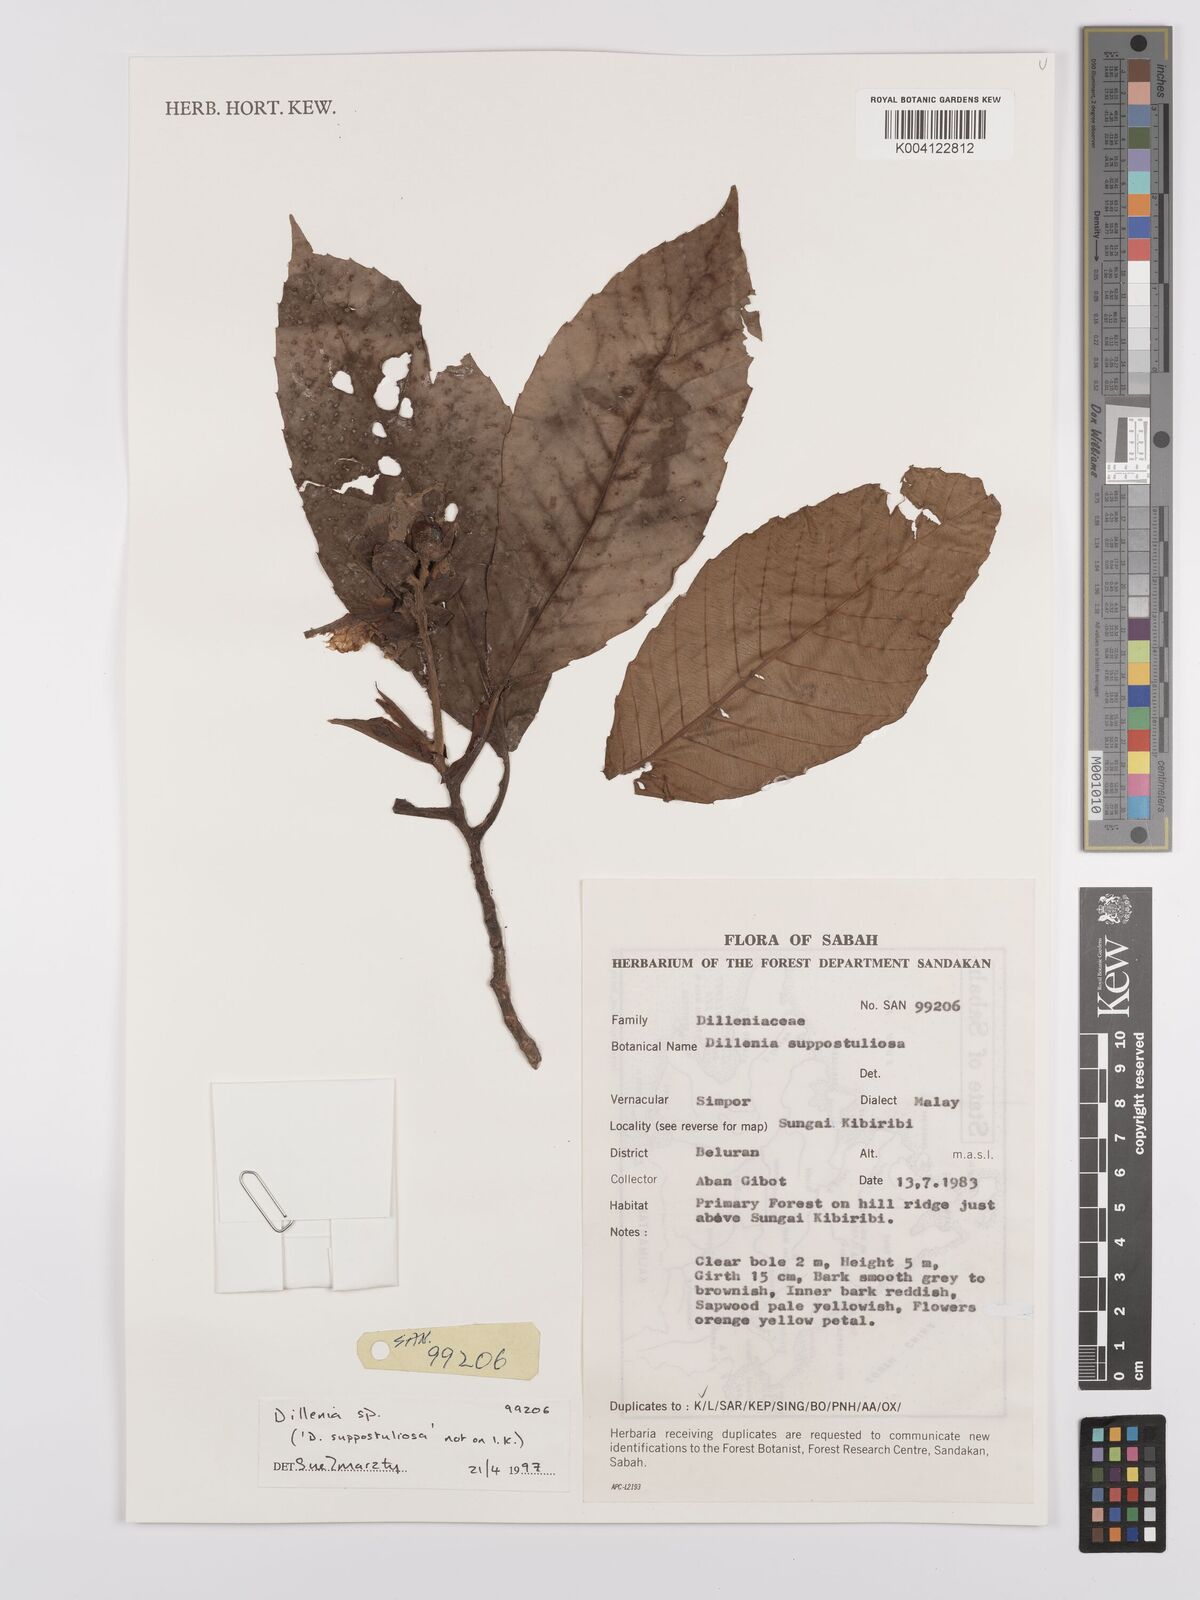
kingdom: Plantae
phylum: Tracheophyta
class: Magnoliopsida
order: Dilleniales
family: Dilleniaceae
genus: Dillenia
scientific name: Dillenia
